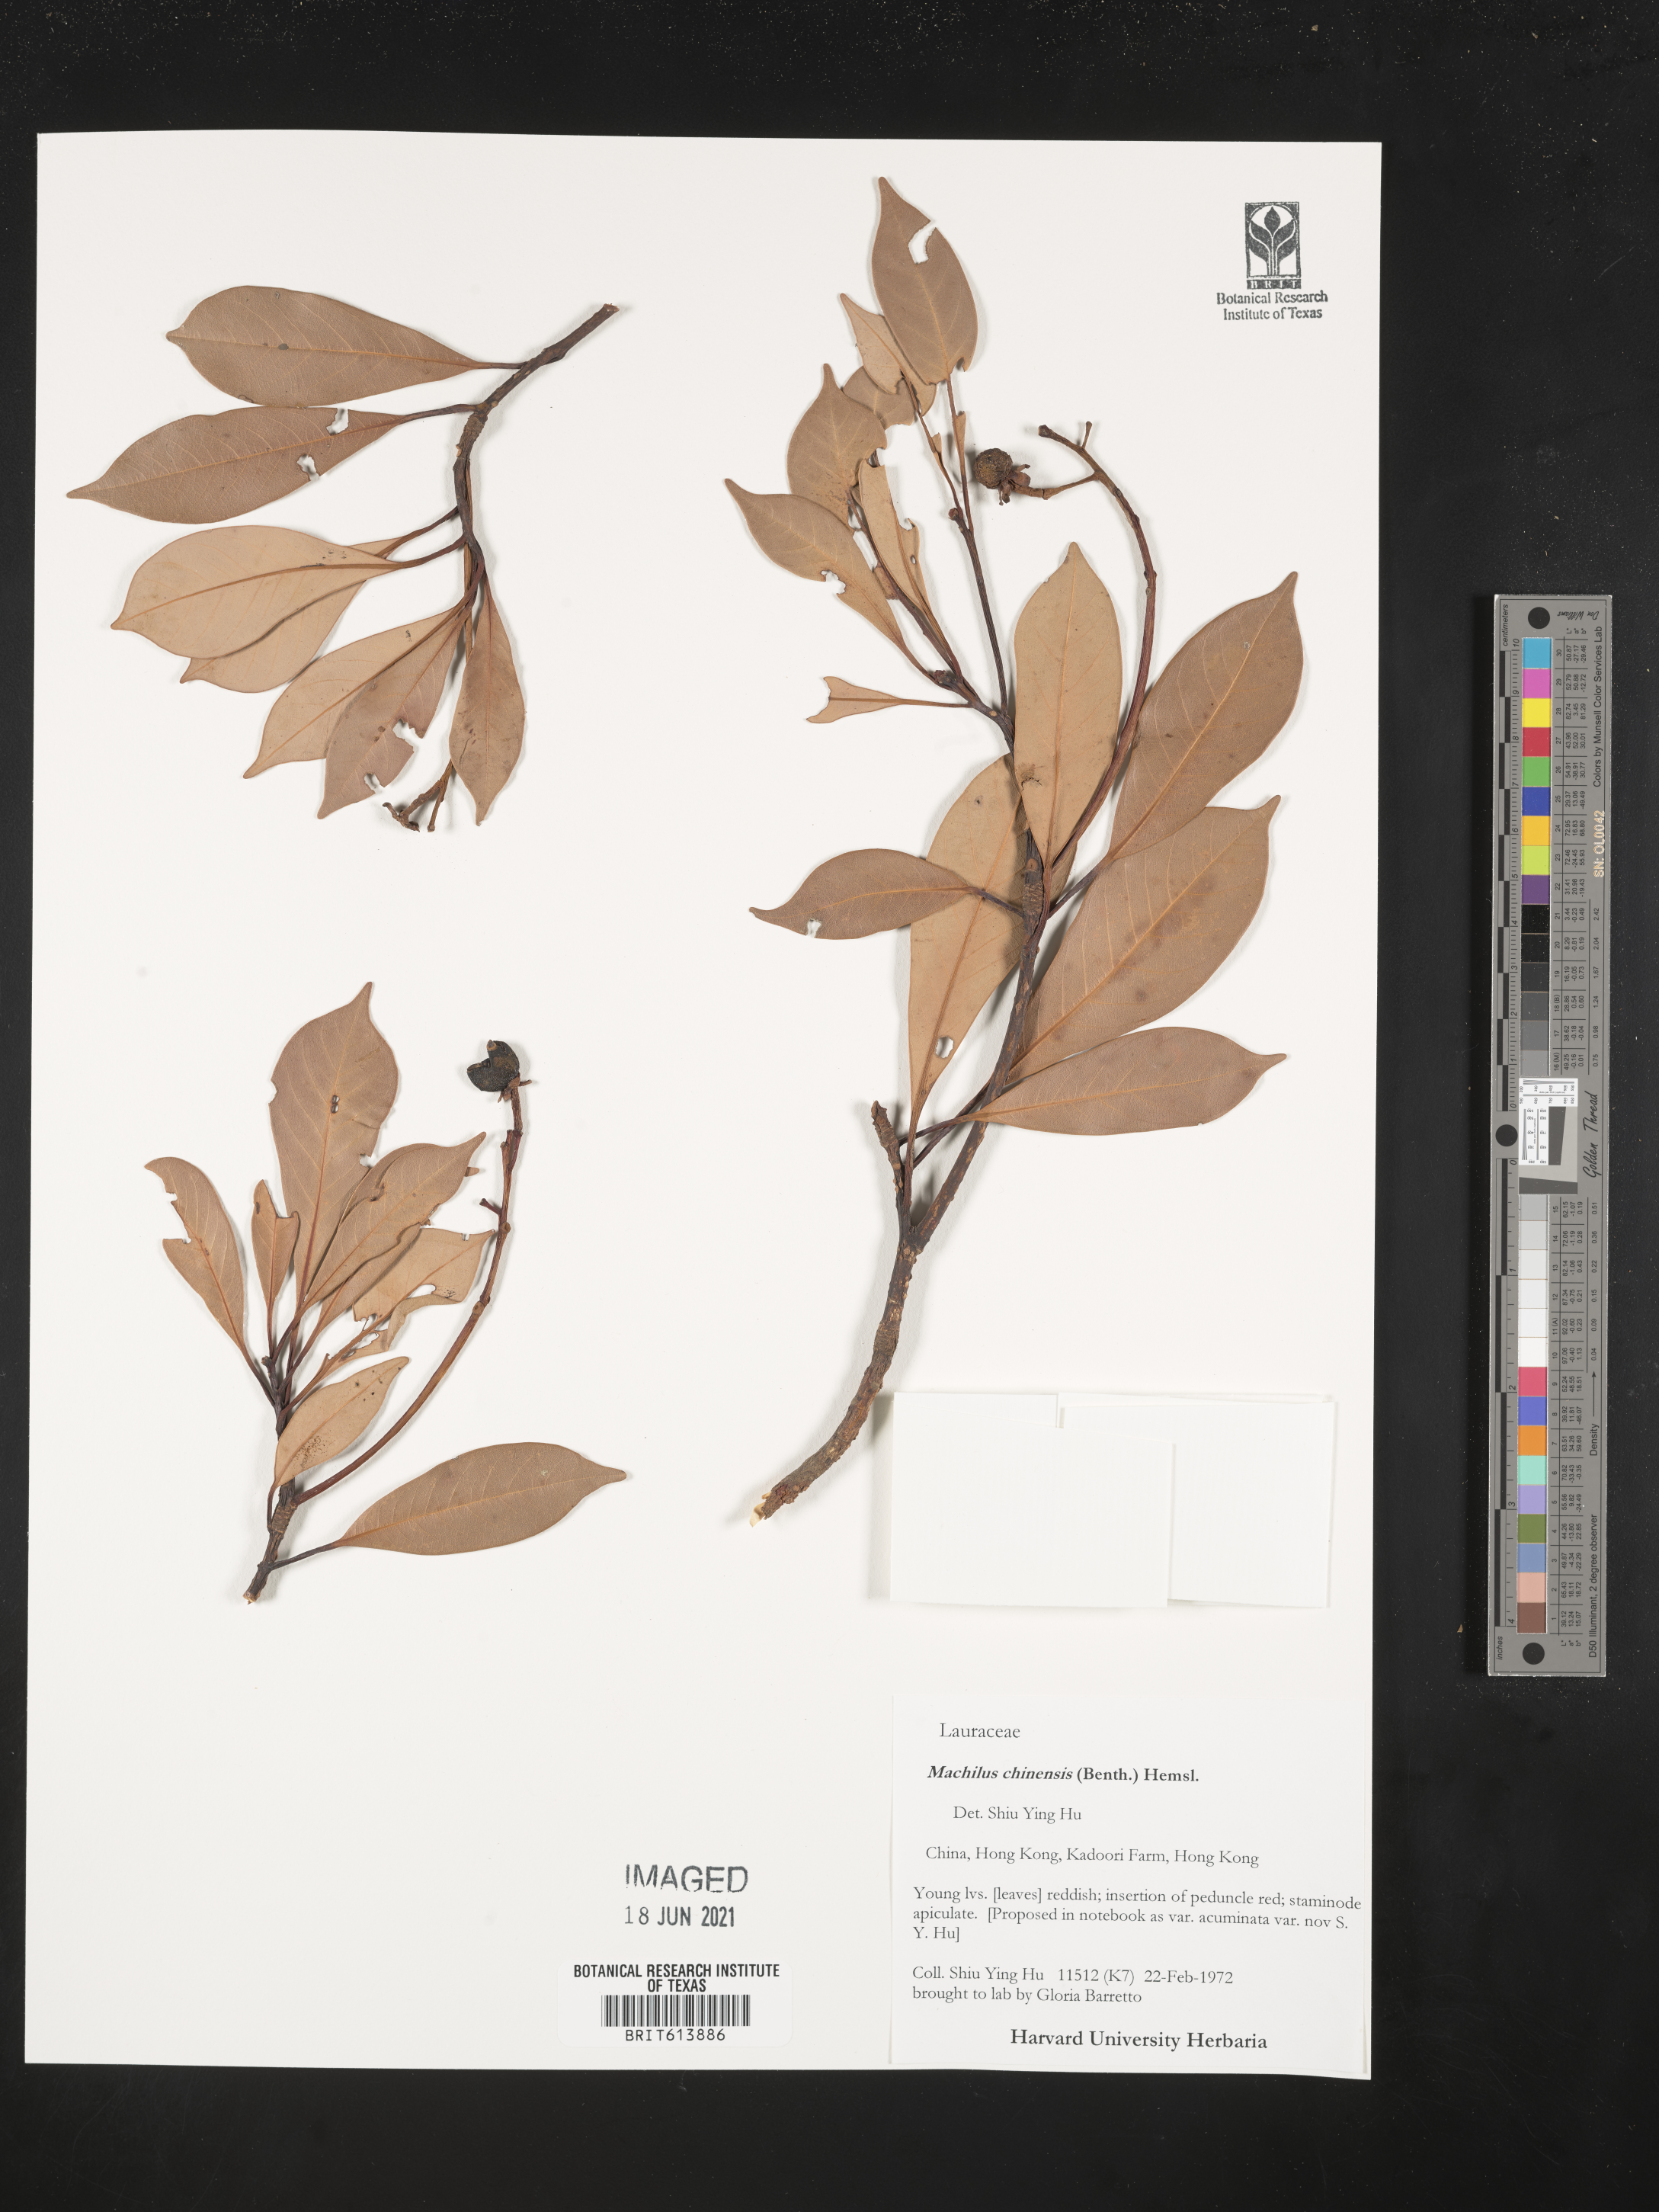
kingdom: Plantae
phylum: Tracheophyta
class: Magnoliopsida
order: Laurales
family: Lauraceae
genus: Machilus
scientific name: Machilus chinensis
